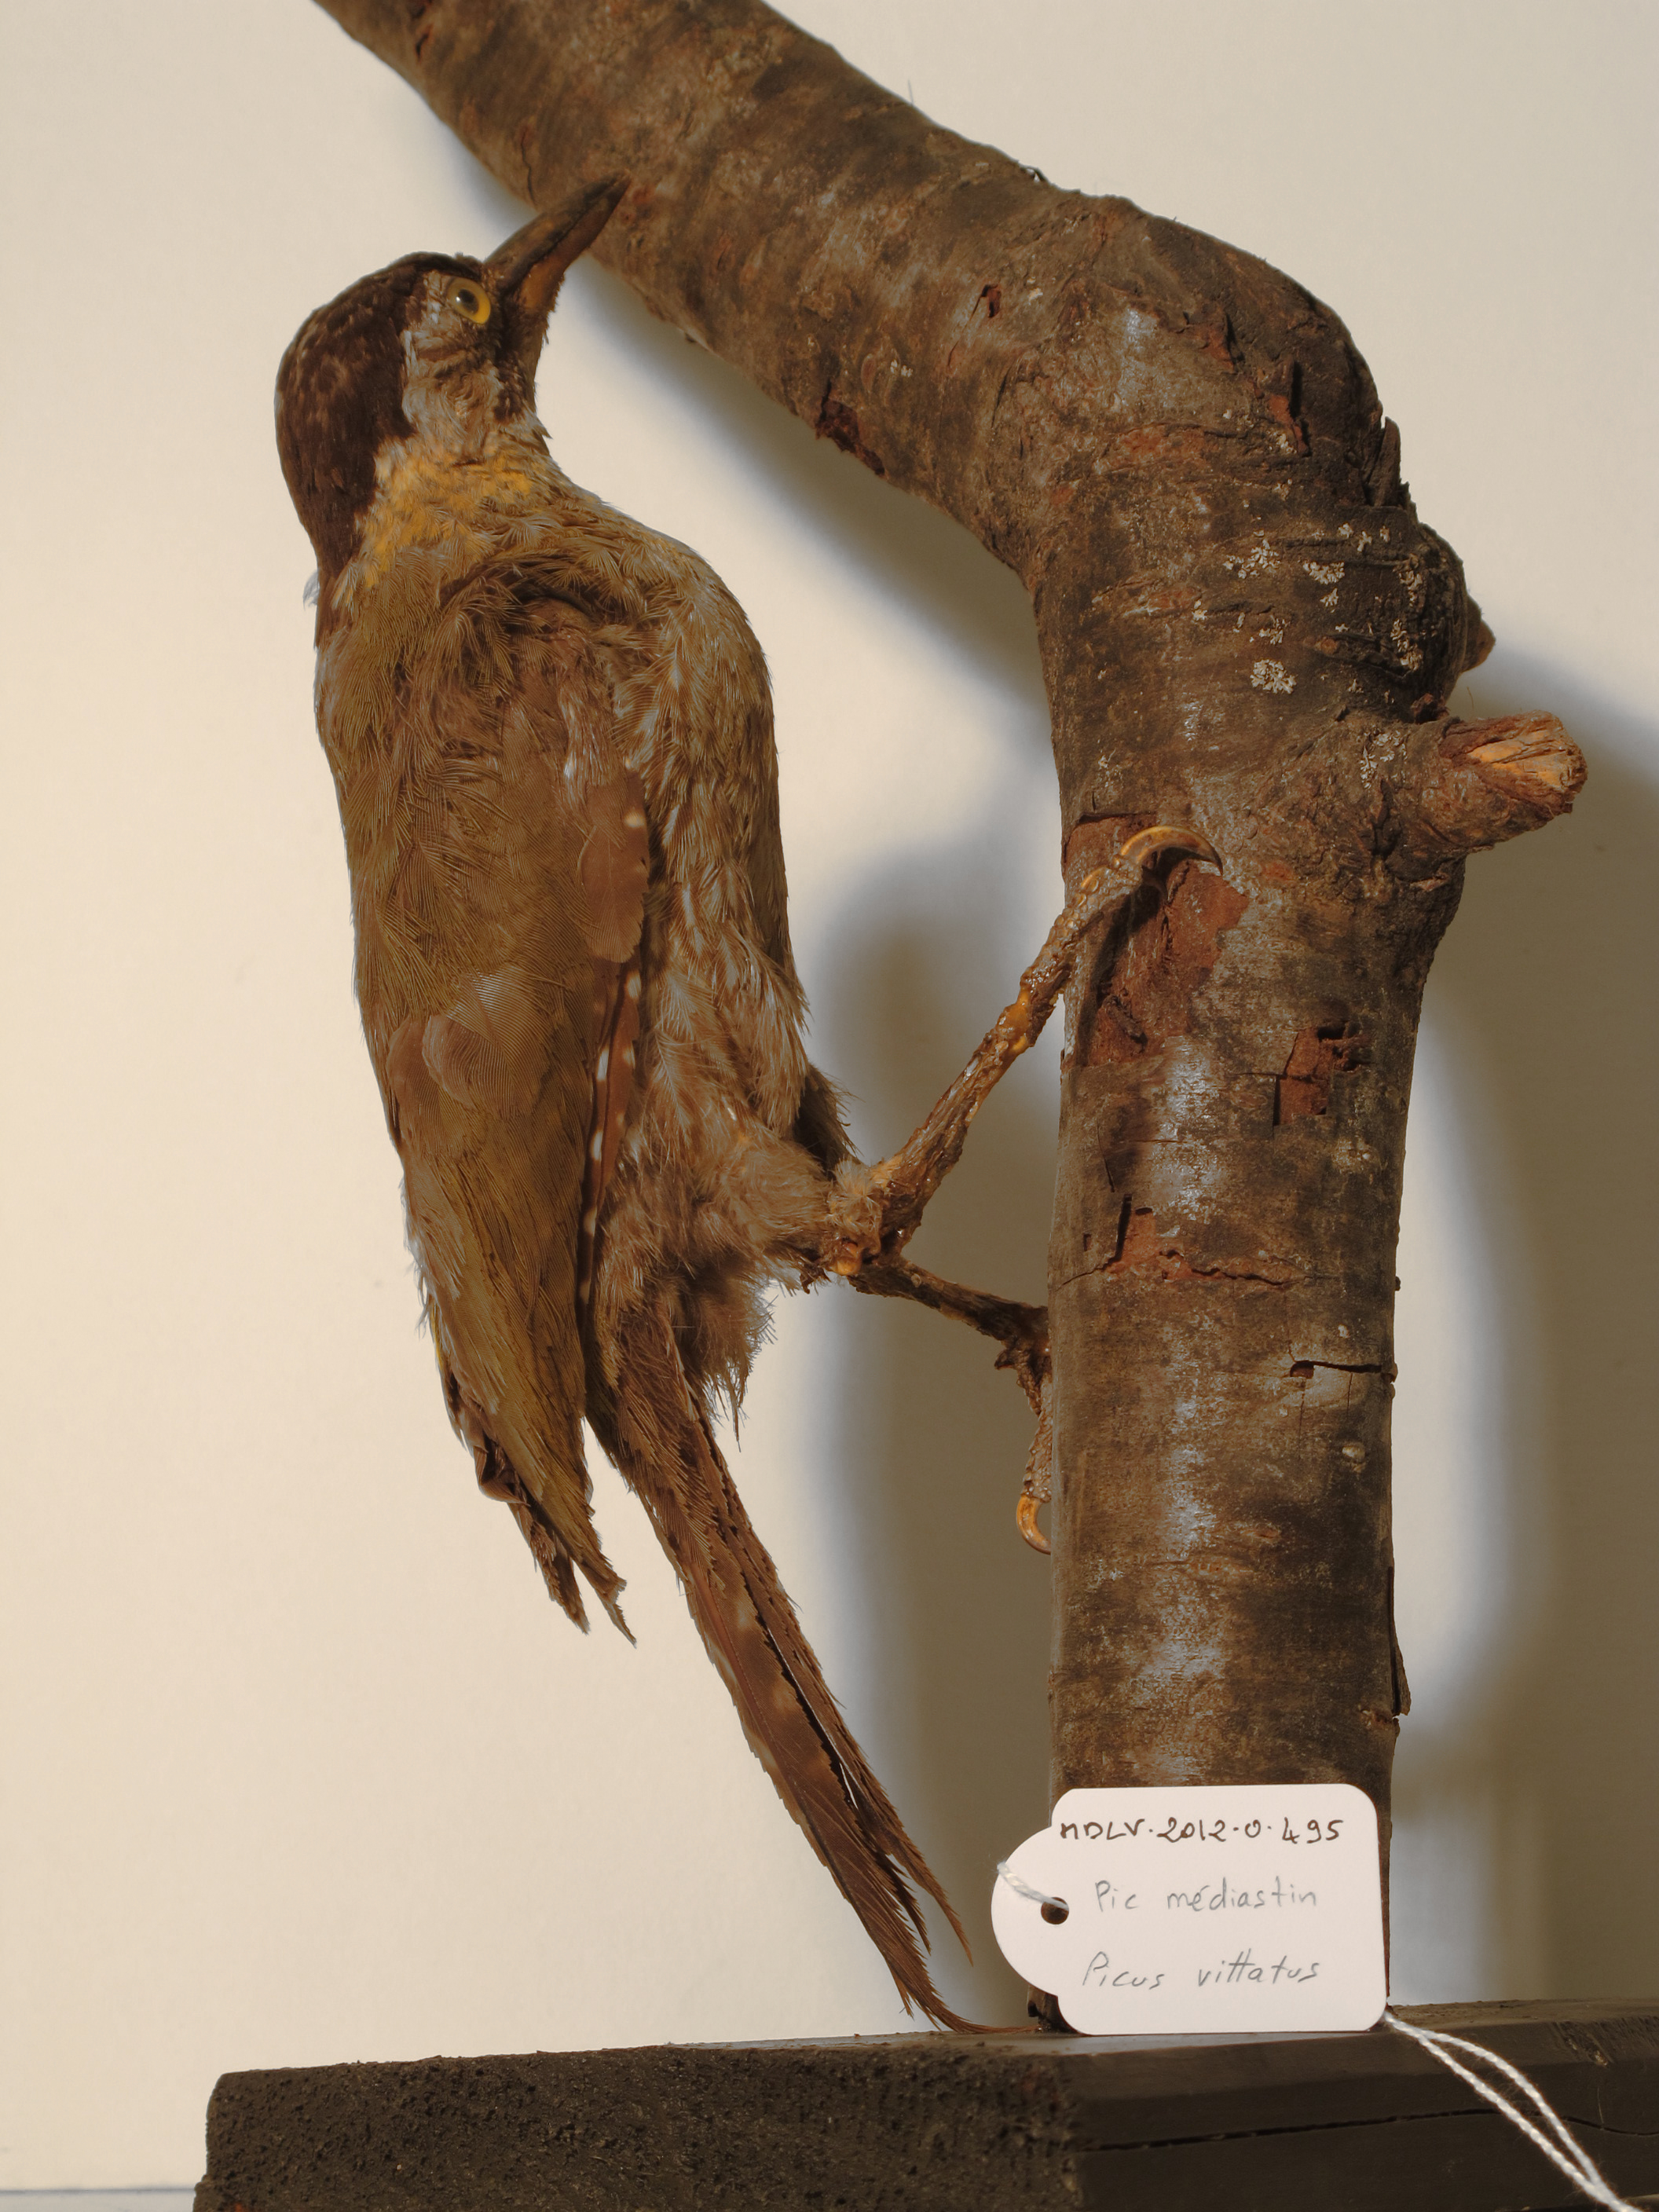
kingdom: Animalia
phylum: Chordata
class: Aves
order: Piciformes
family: Picidae
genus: Picus
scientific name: Picus vittatus
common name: Laced Woodpecker
